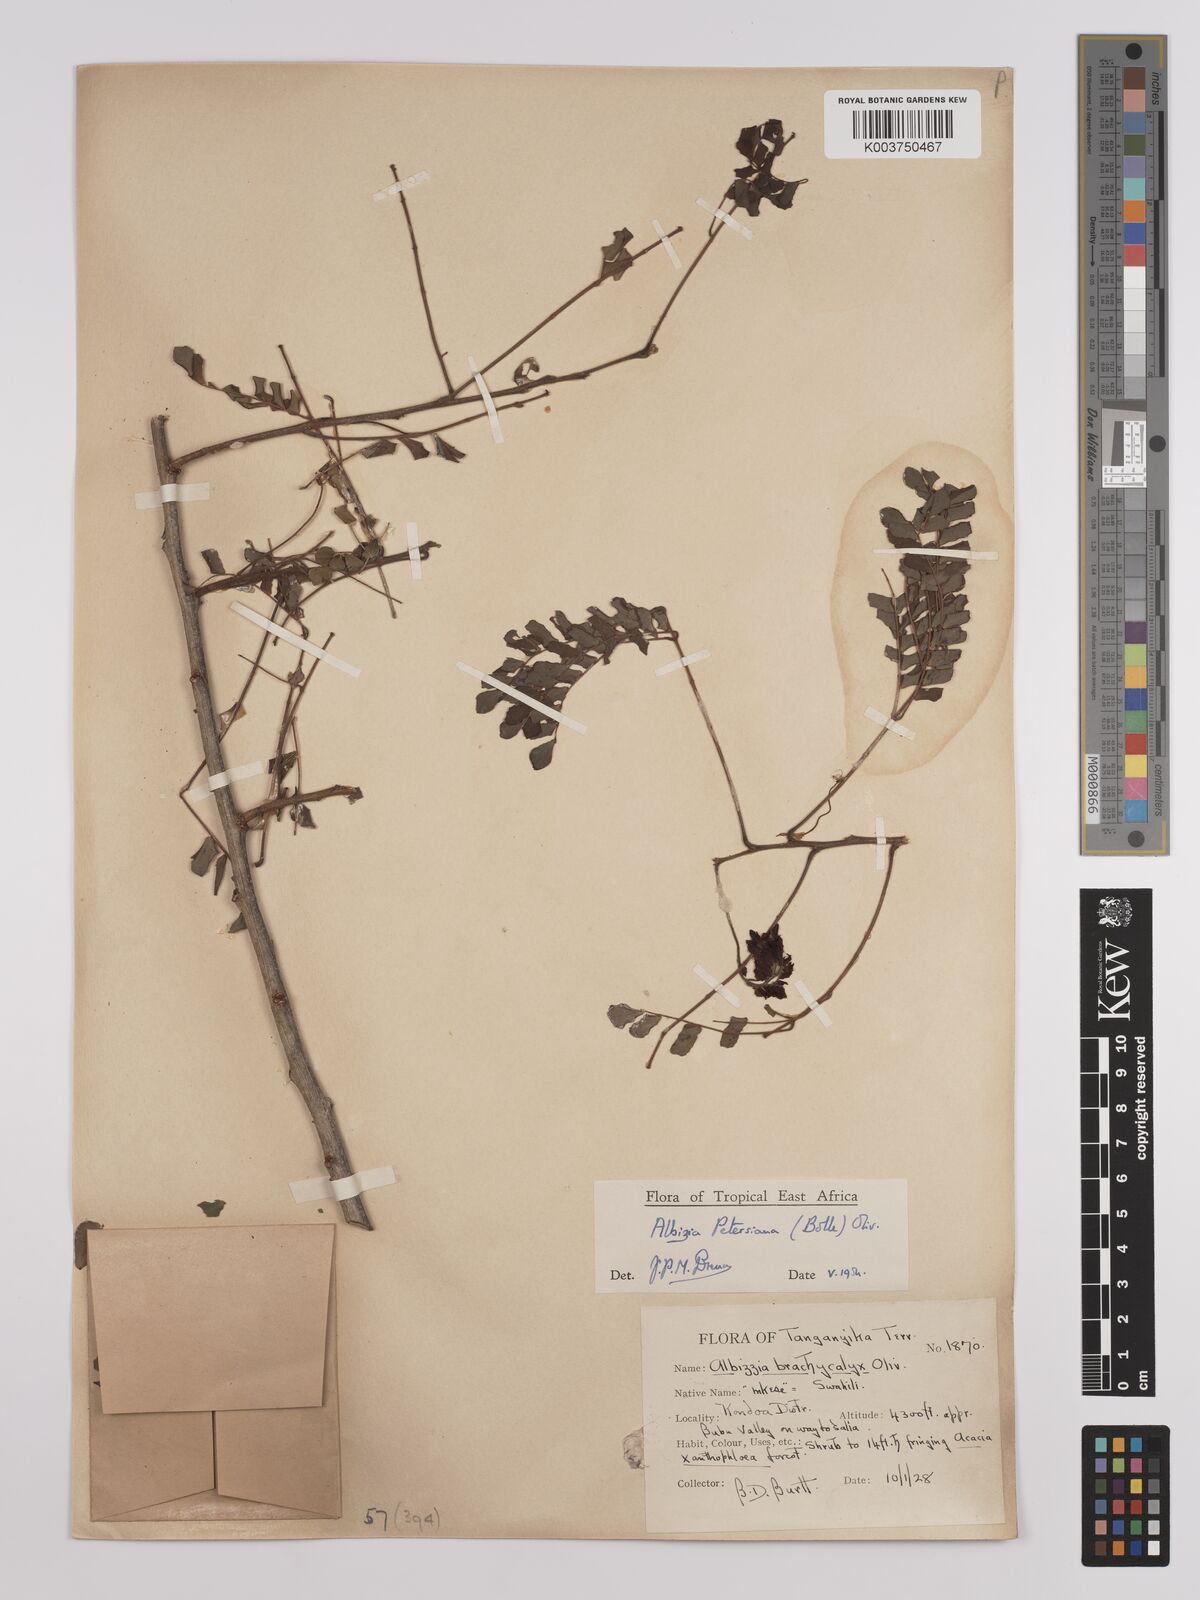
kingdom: Plantae
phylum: Tracheophyta
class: Magnoliopsida
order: Fabales
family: Fabaceae
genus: Albizia
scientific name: Albizia petersiana
